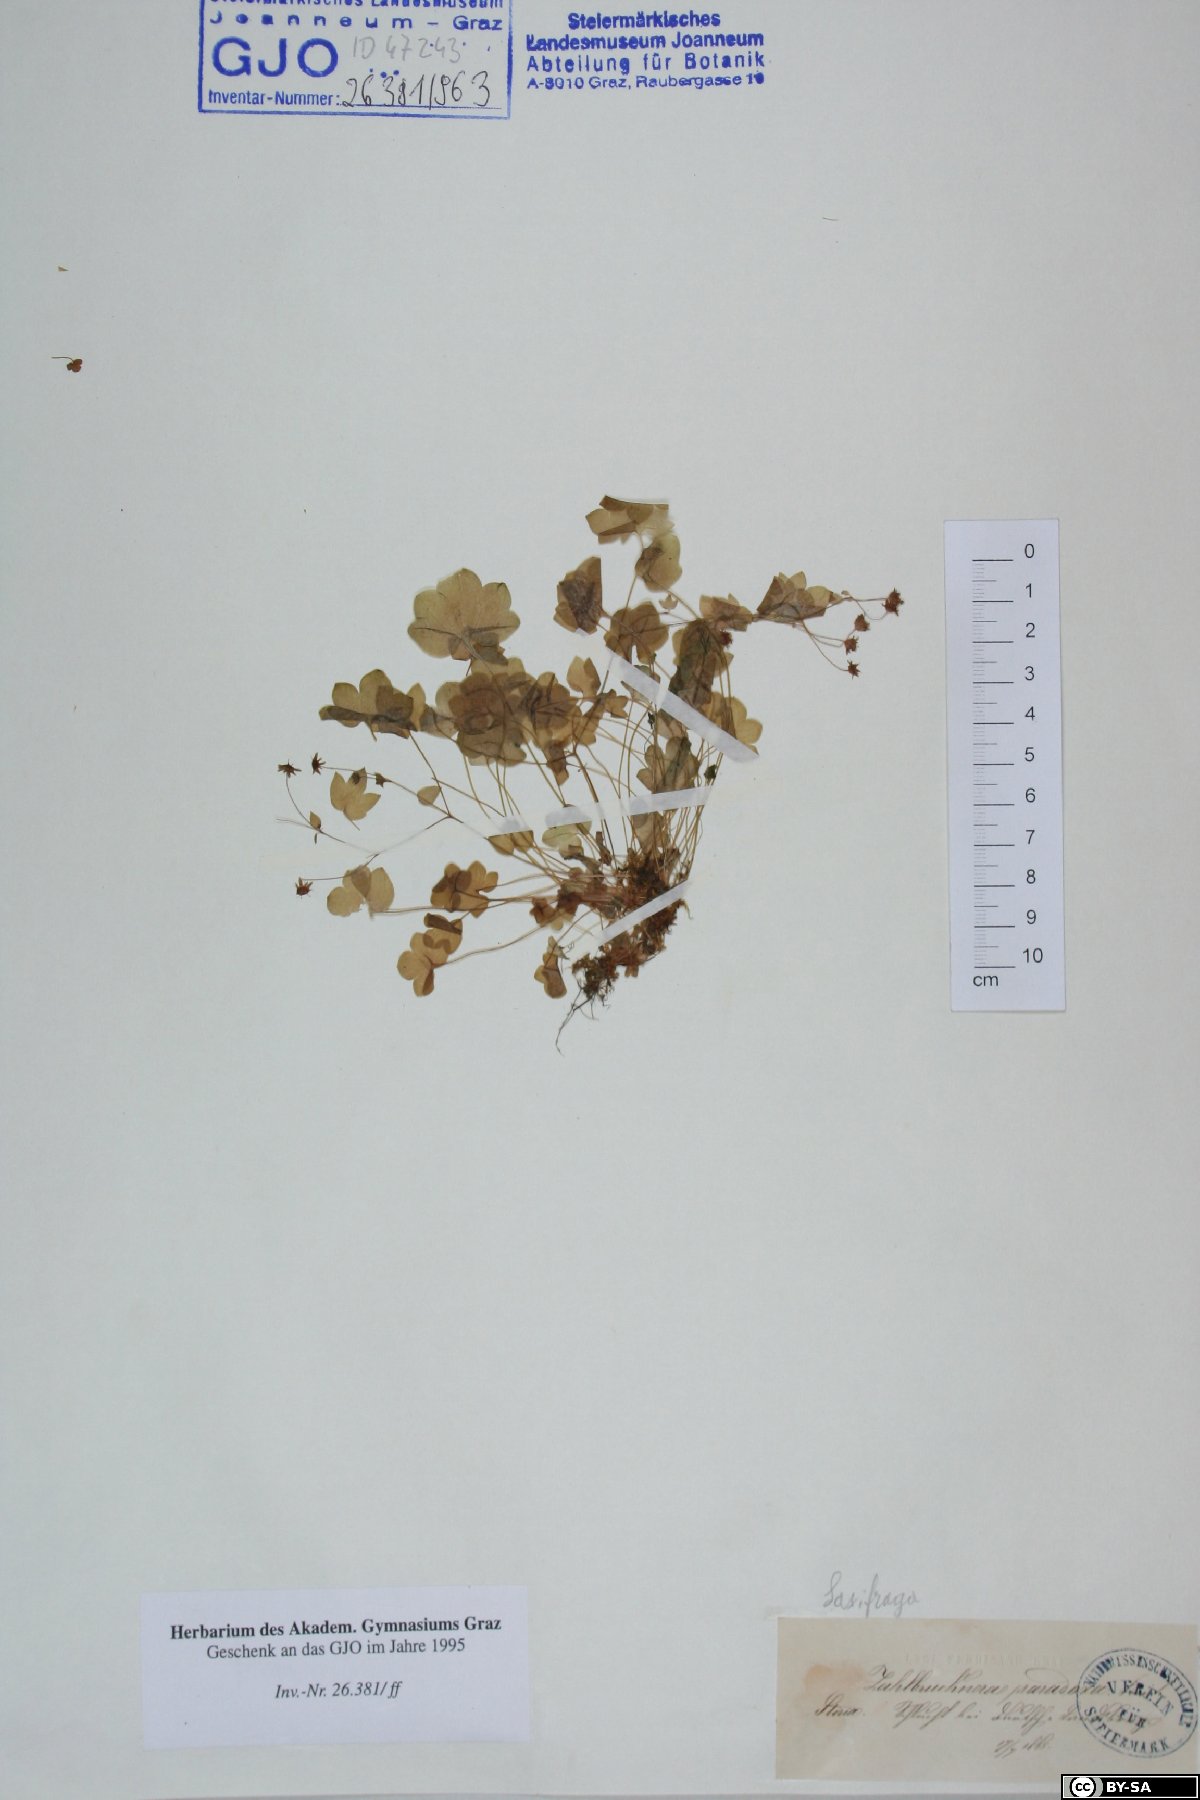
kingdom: Plantae
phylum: Tracheophyta
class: Magnoliopsida
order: Saxifragales
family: Saxifragaceae
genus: Saxifraga
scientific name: Saxifraga paradoxa
